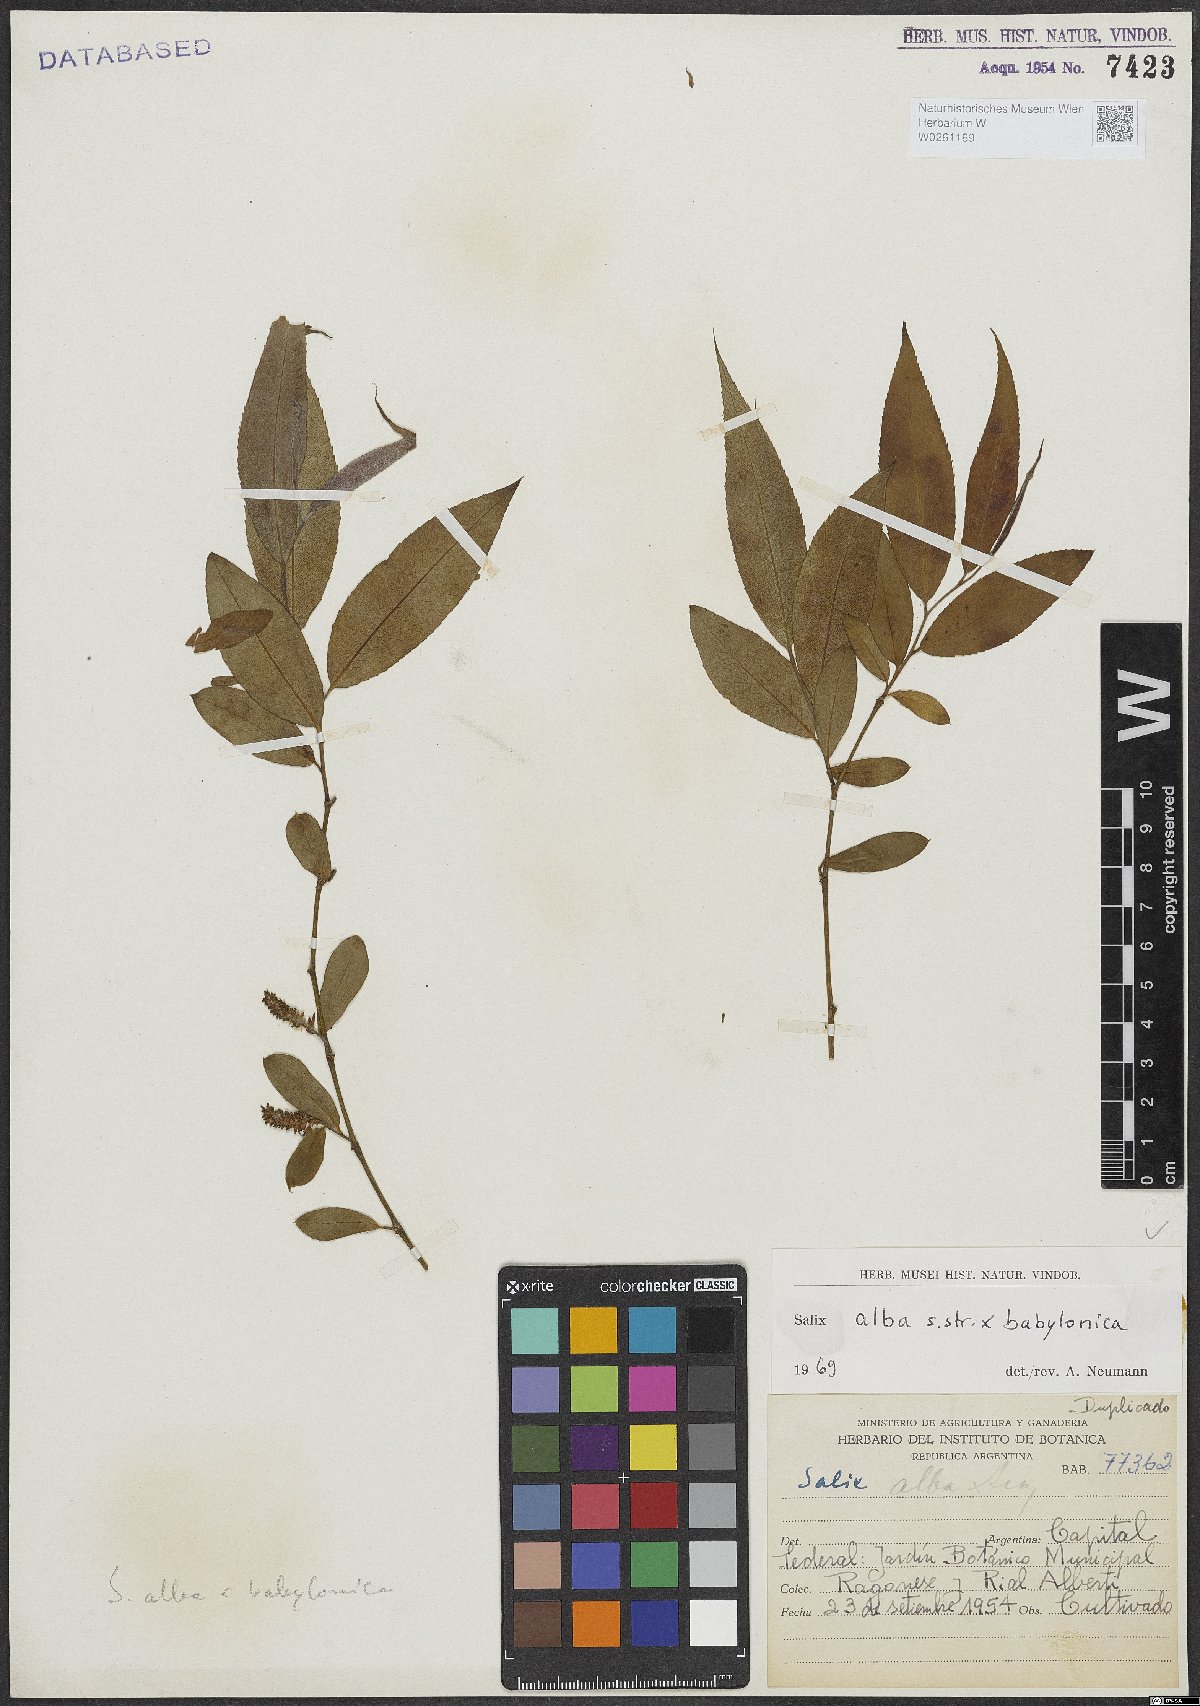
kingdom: Plantae
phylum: Tracheophyta
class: Magnoliopsida
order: Malpighiales
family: Salicaceae
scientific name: Salicaceae
